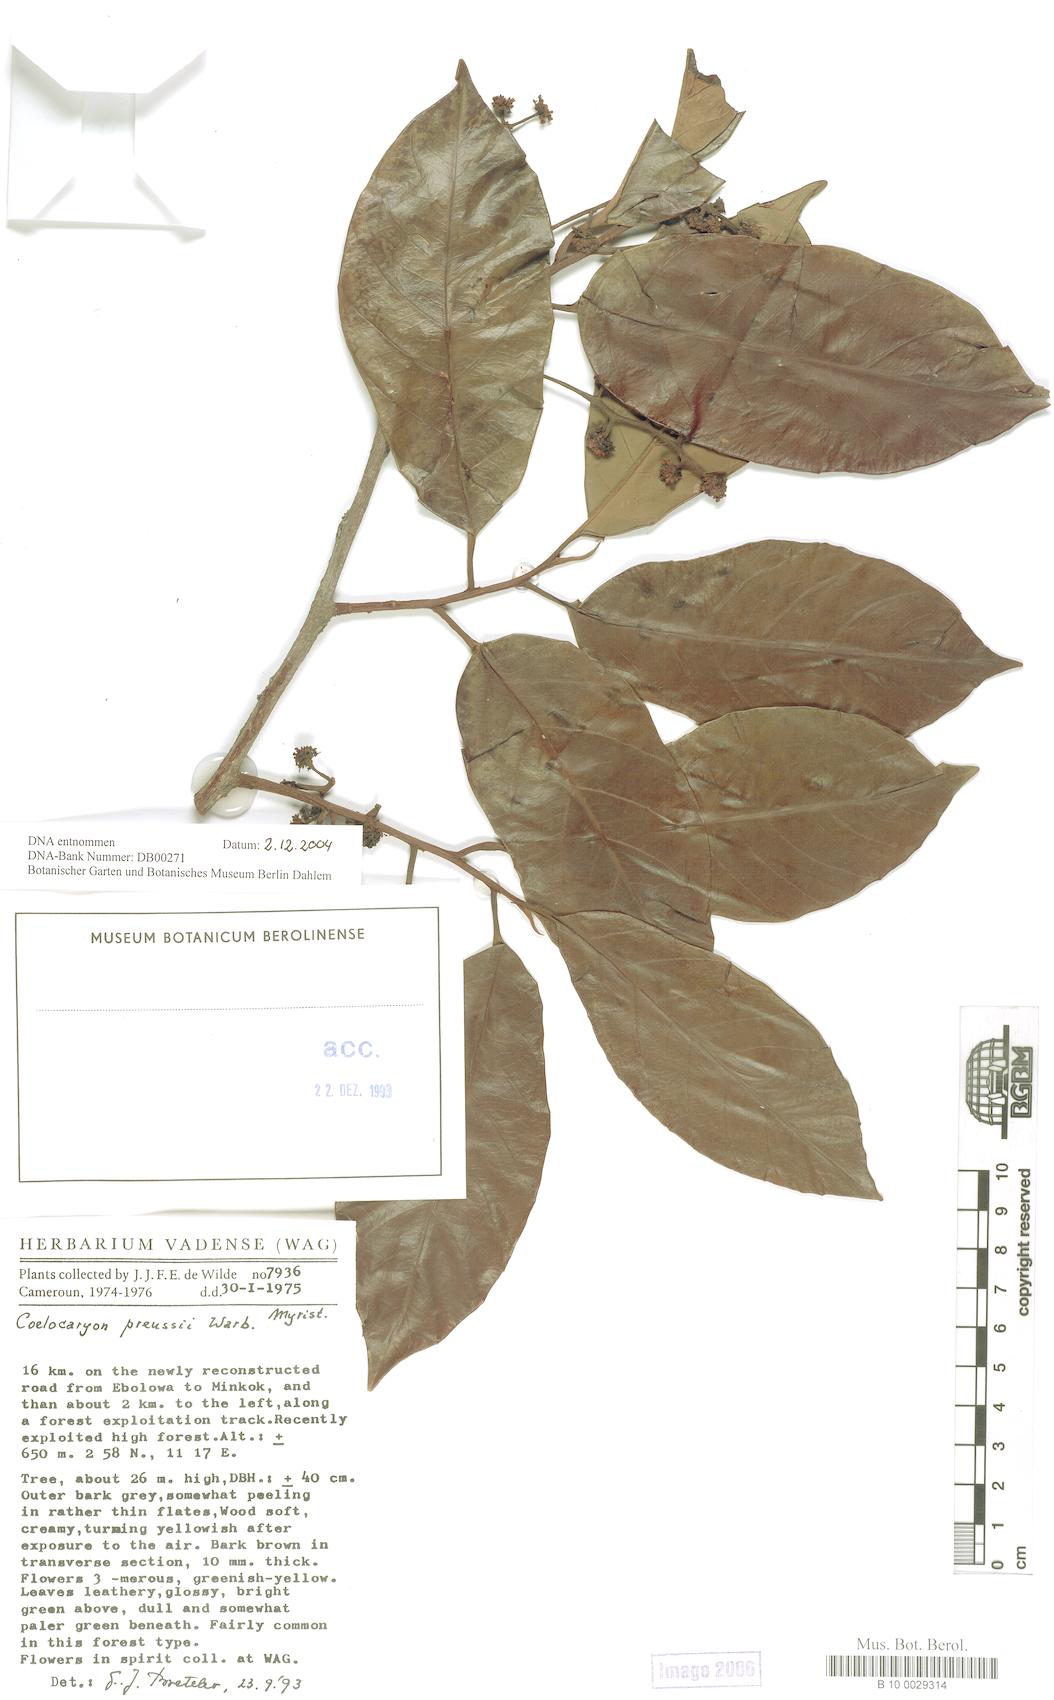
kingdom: Plantae
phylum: Tracheophyta
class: Magnoliopsida
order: Magnoliales
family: Myristicaceae
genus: Coelocaryon
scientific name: Coelocaryon preussii
